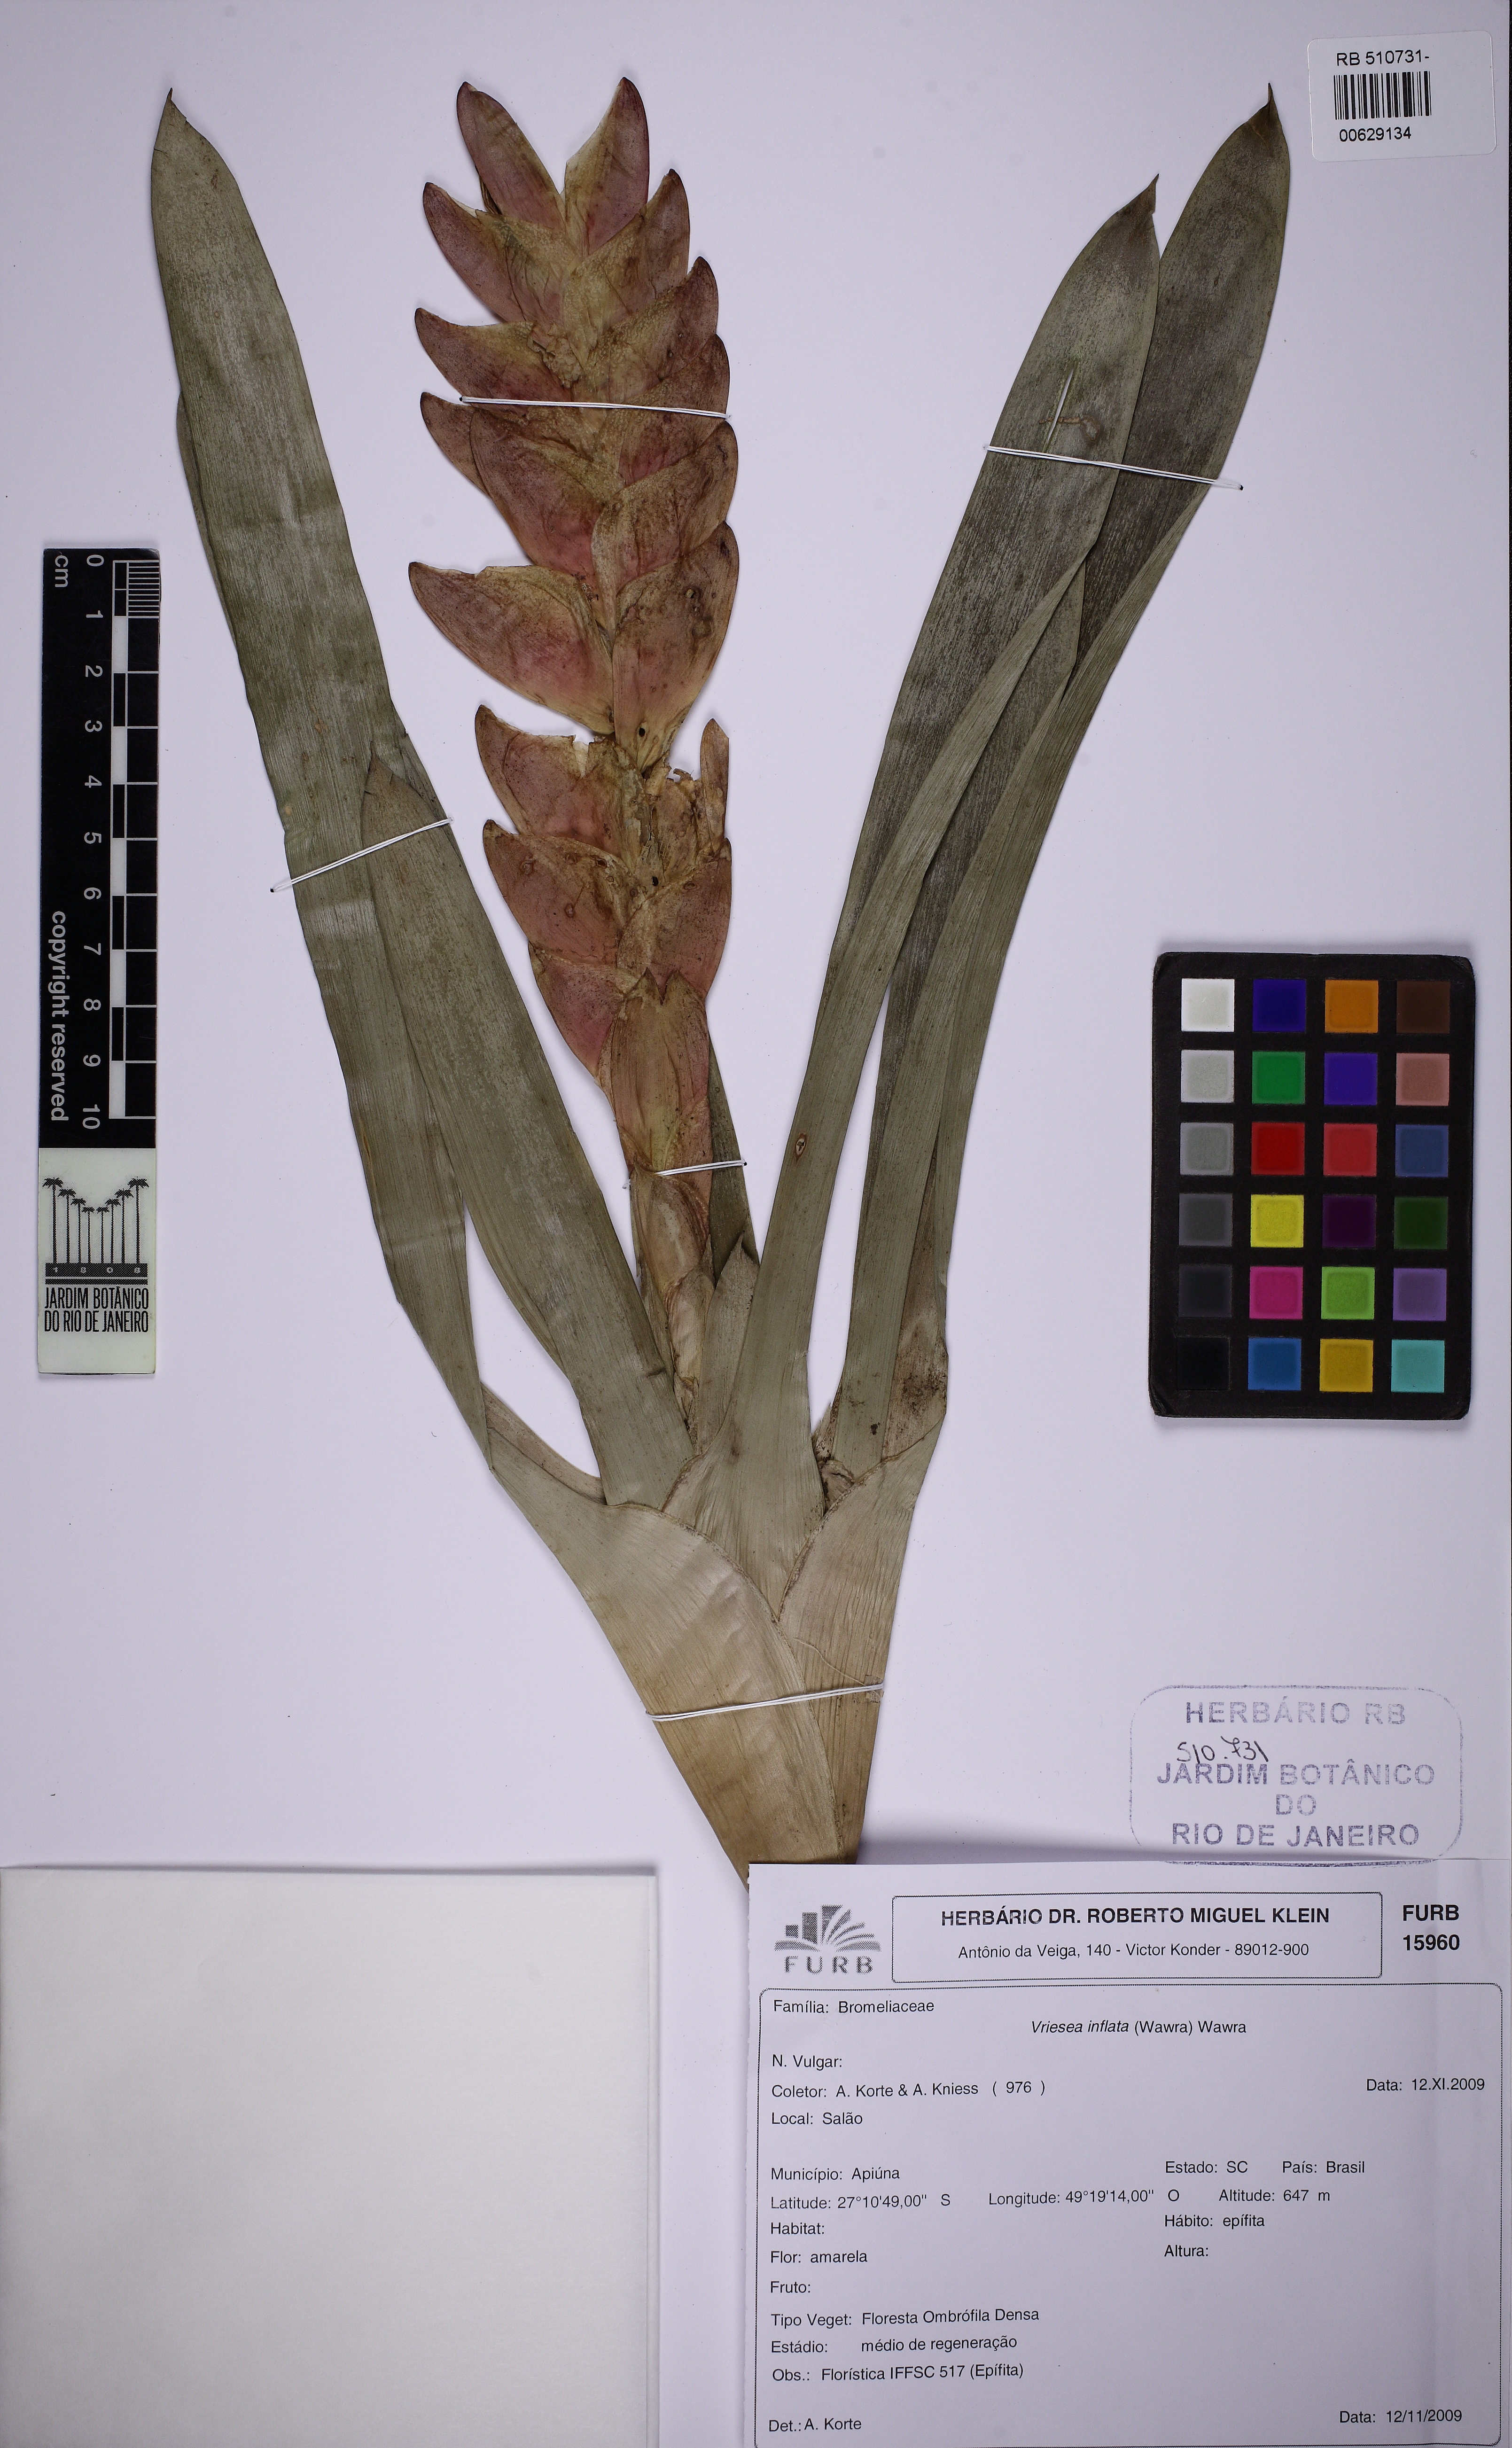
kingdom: Plantae
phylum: Tracheophyta
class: Liliopsida
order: Poales
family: Bromeliaceae
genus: Vriesea
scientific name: Vriesea incurvata
